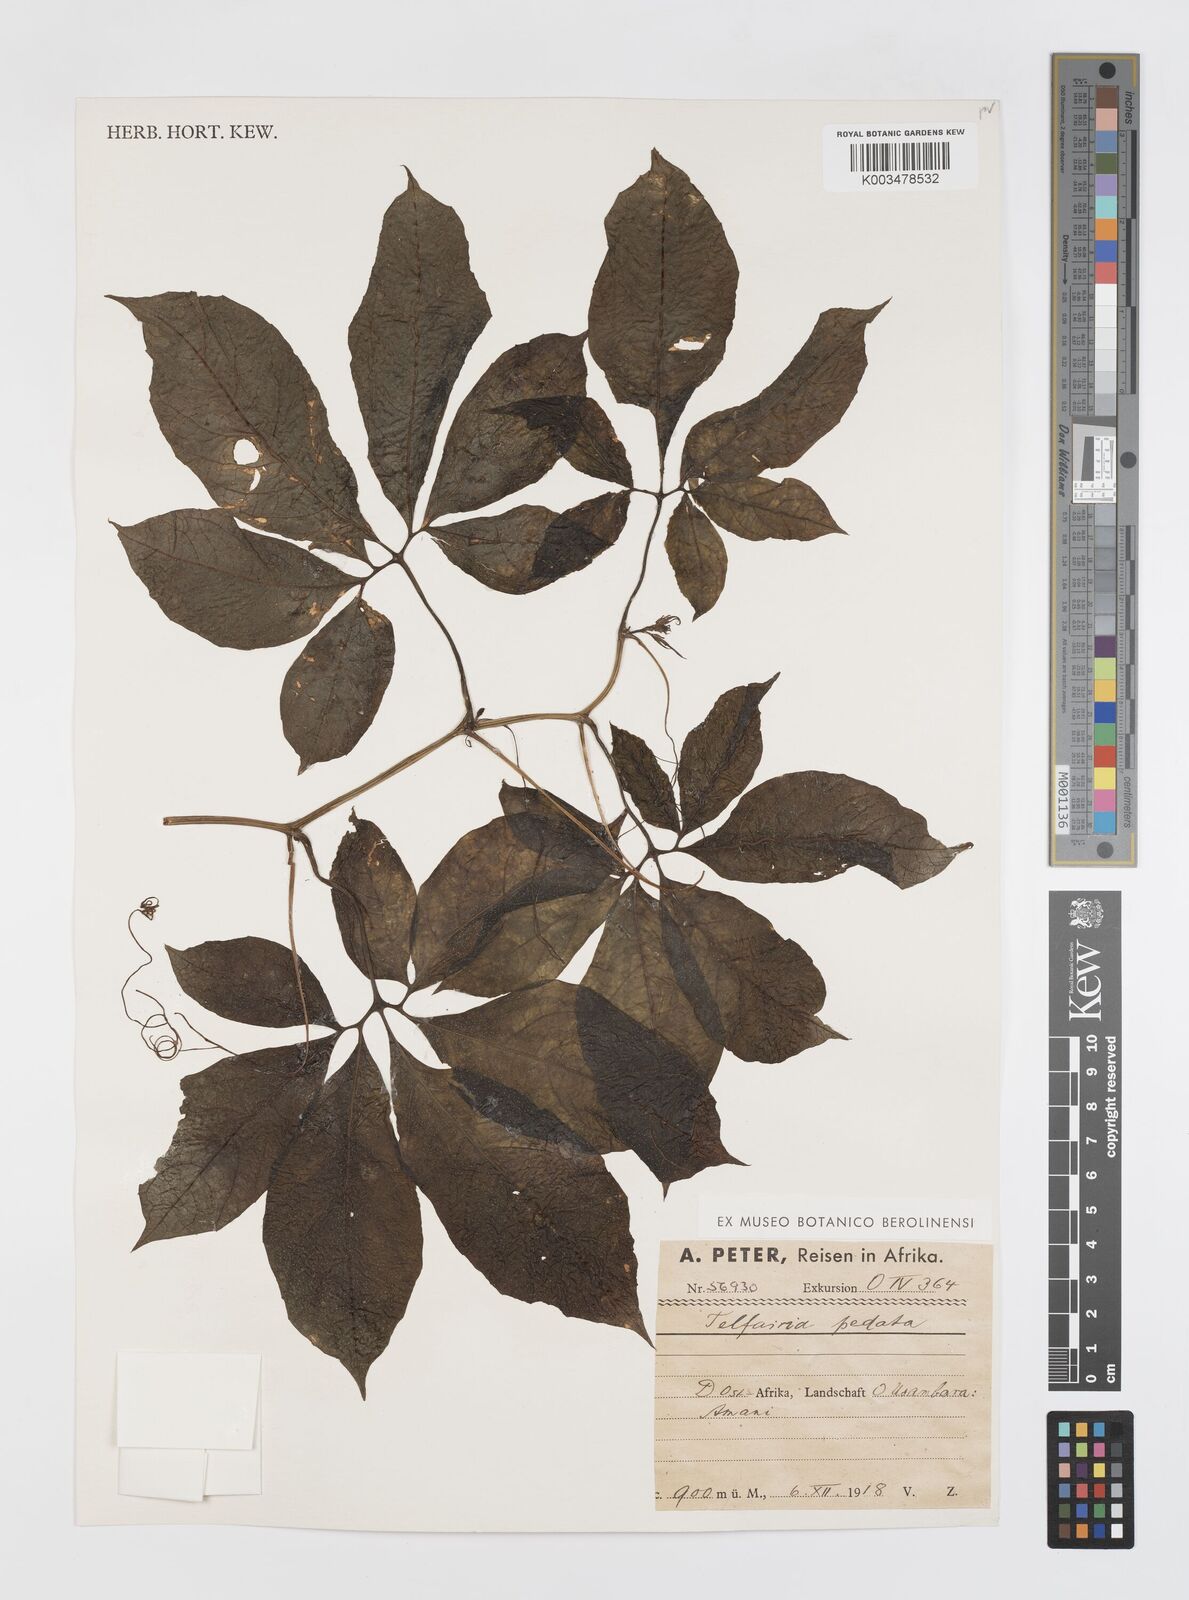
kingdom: Plantae
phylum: Tracheophyta
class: Magnoliopsida
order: Cucurbitales
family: Cucurbitaceae
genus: Telfairia
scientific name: Telfairia pedata
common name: Zanzibar oilvine
